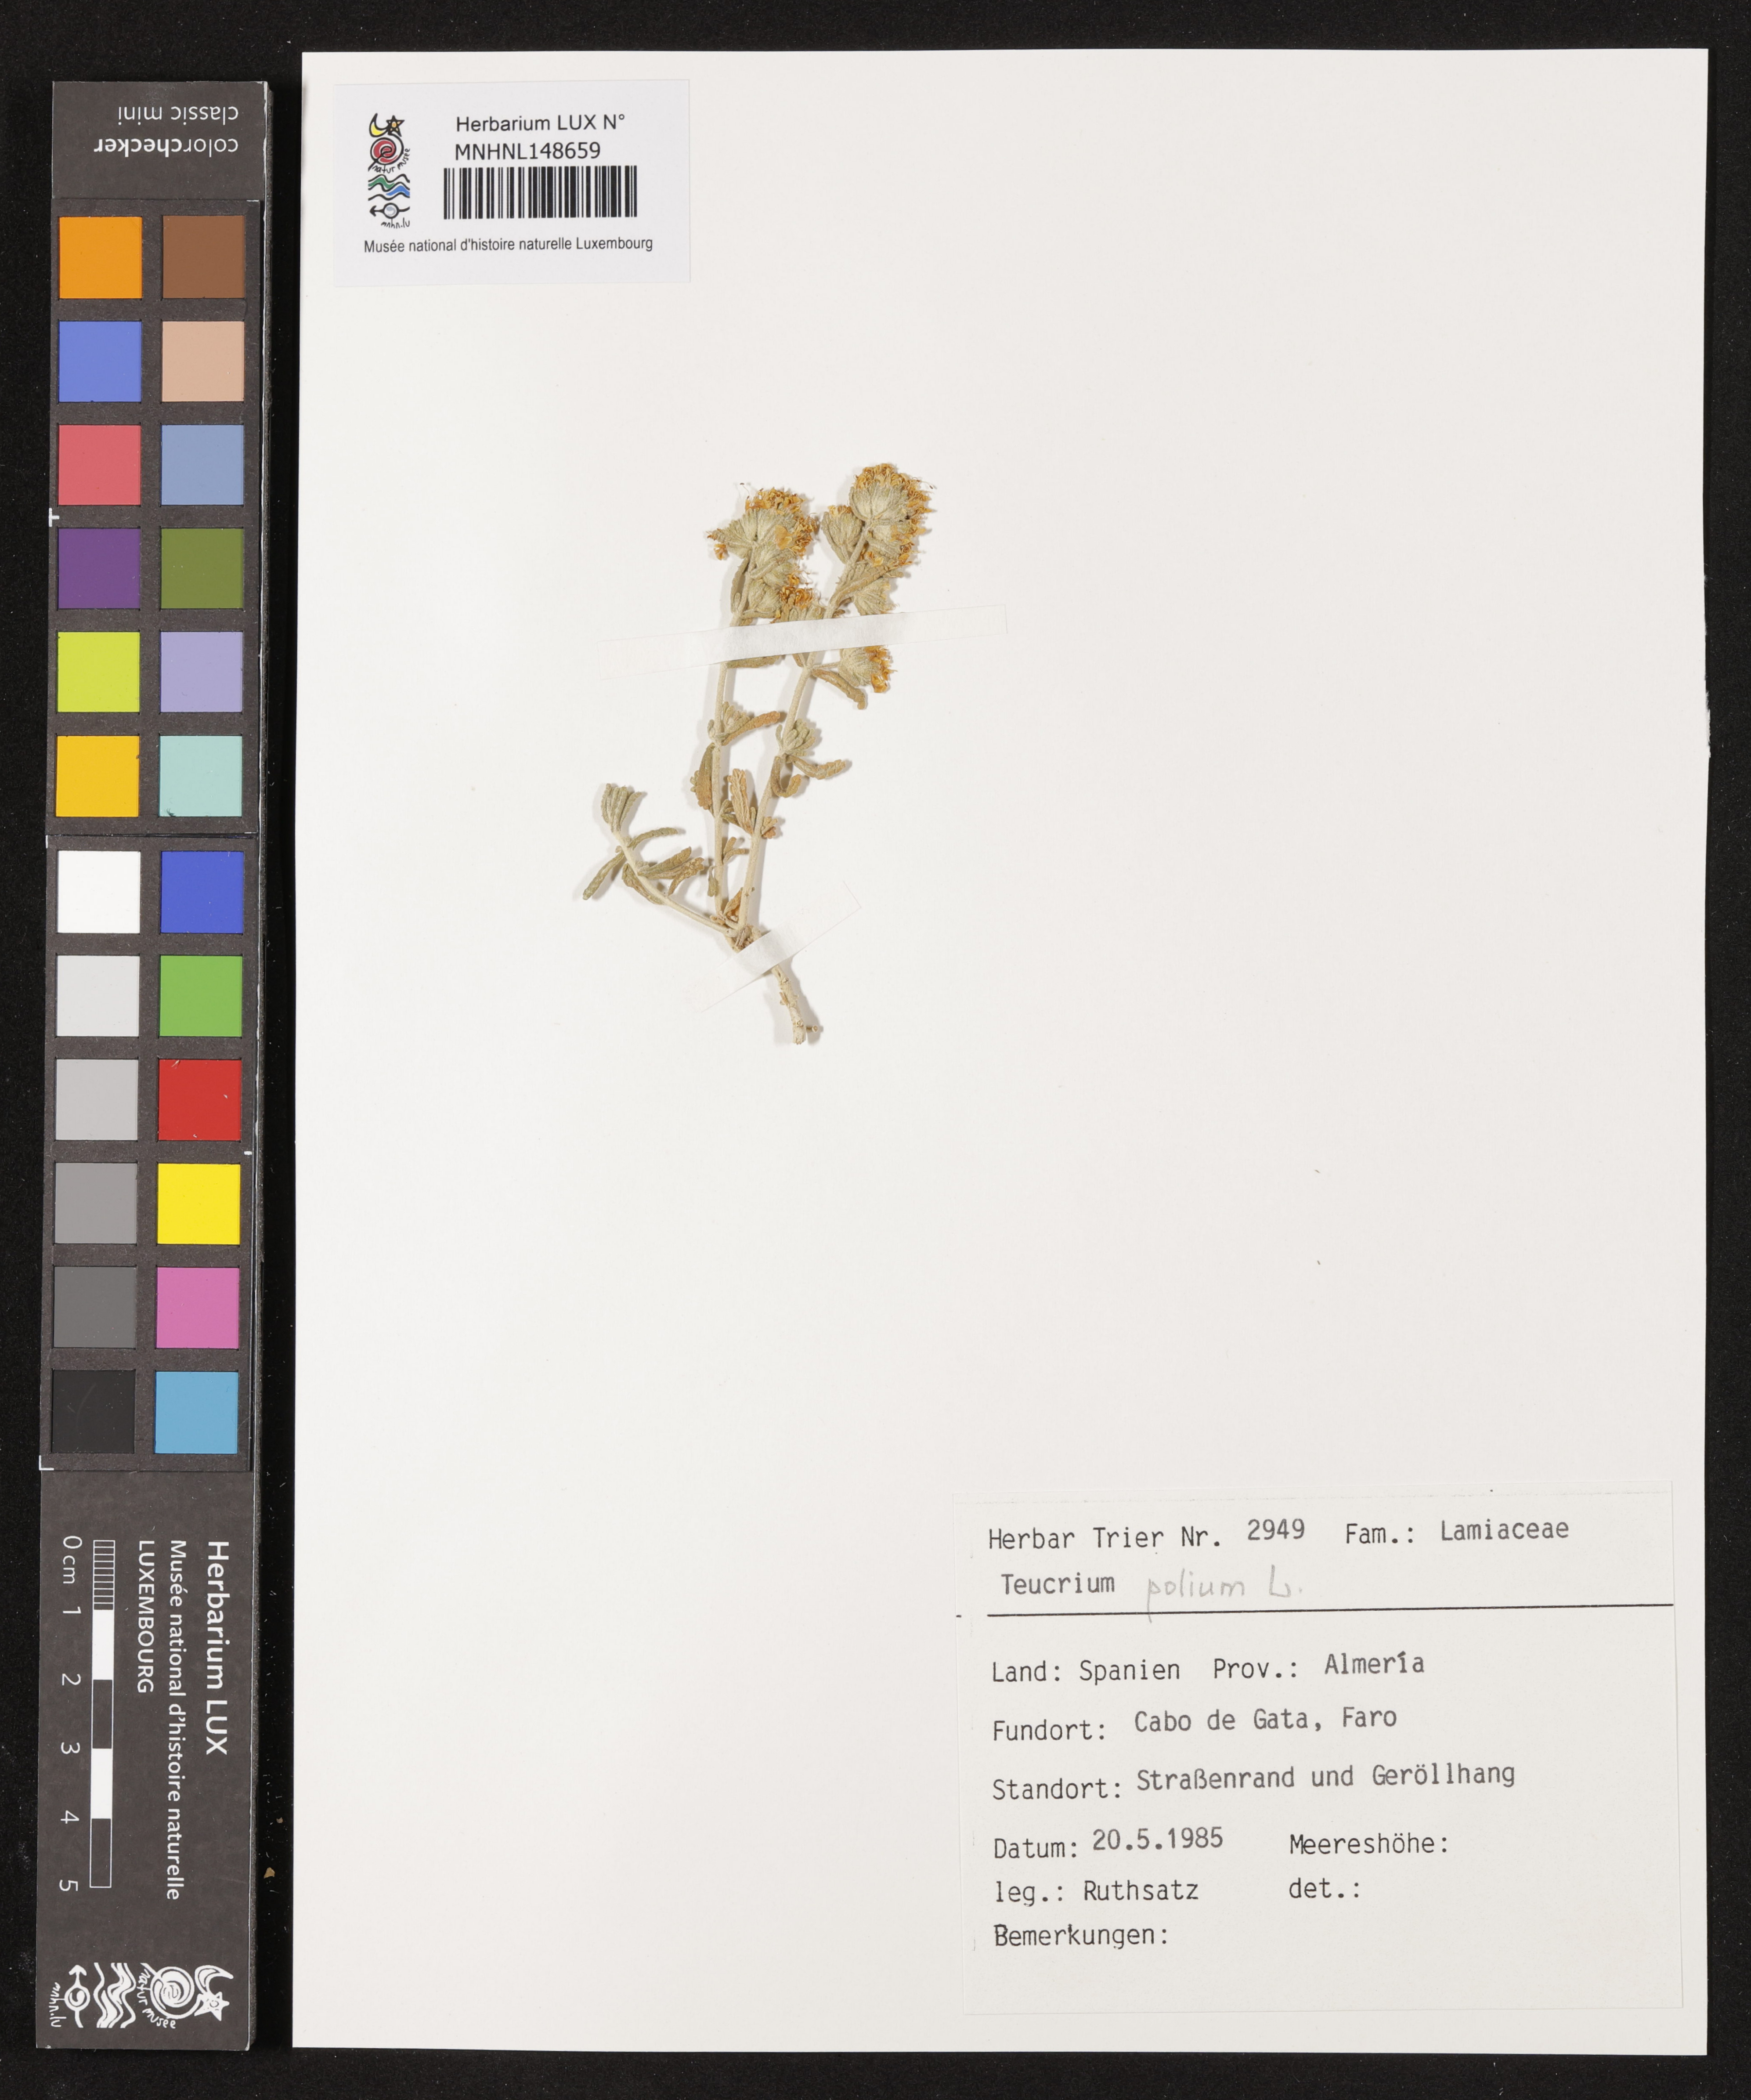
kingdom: Plantae
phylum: Tracheophyta
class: Magnoliopsida
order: Lamiales
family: Lamiaceae
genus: Teucrium
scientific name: Teucrium polium
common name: Poley
